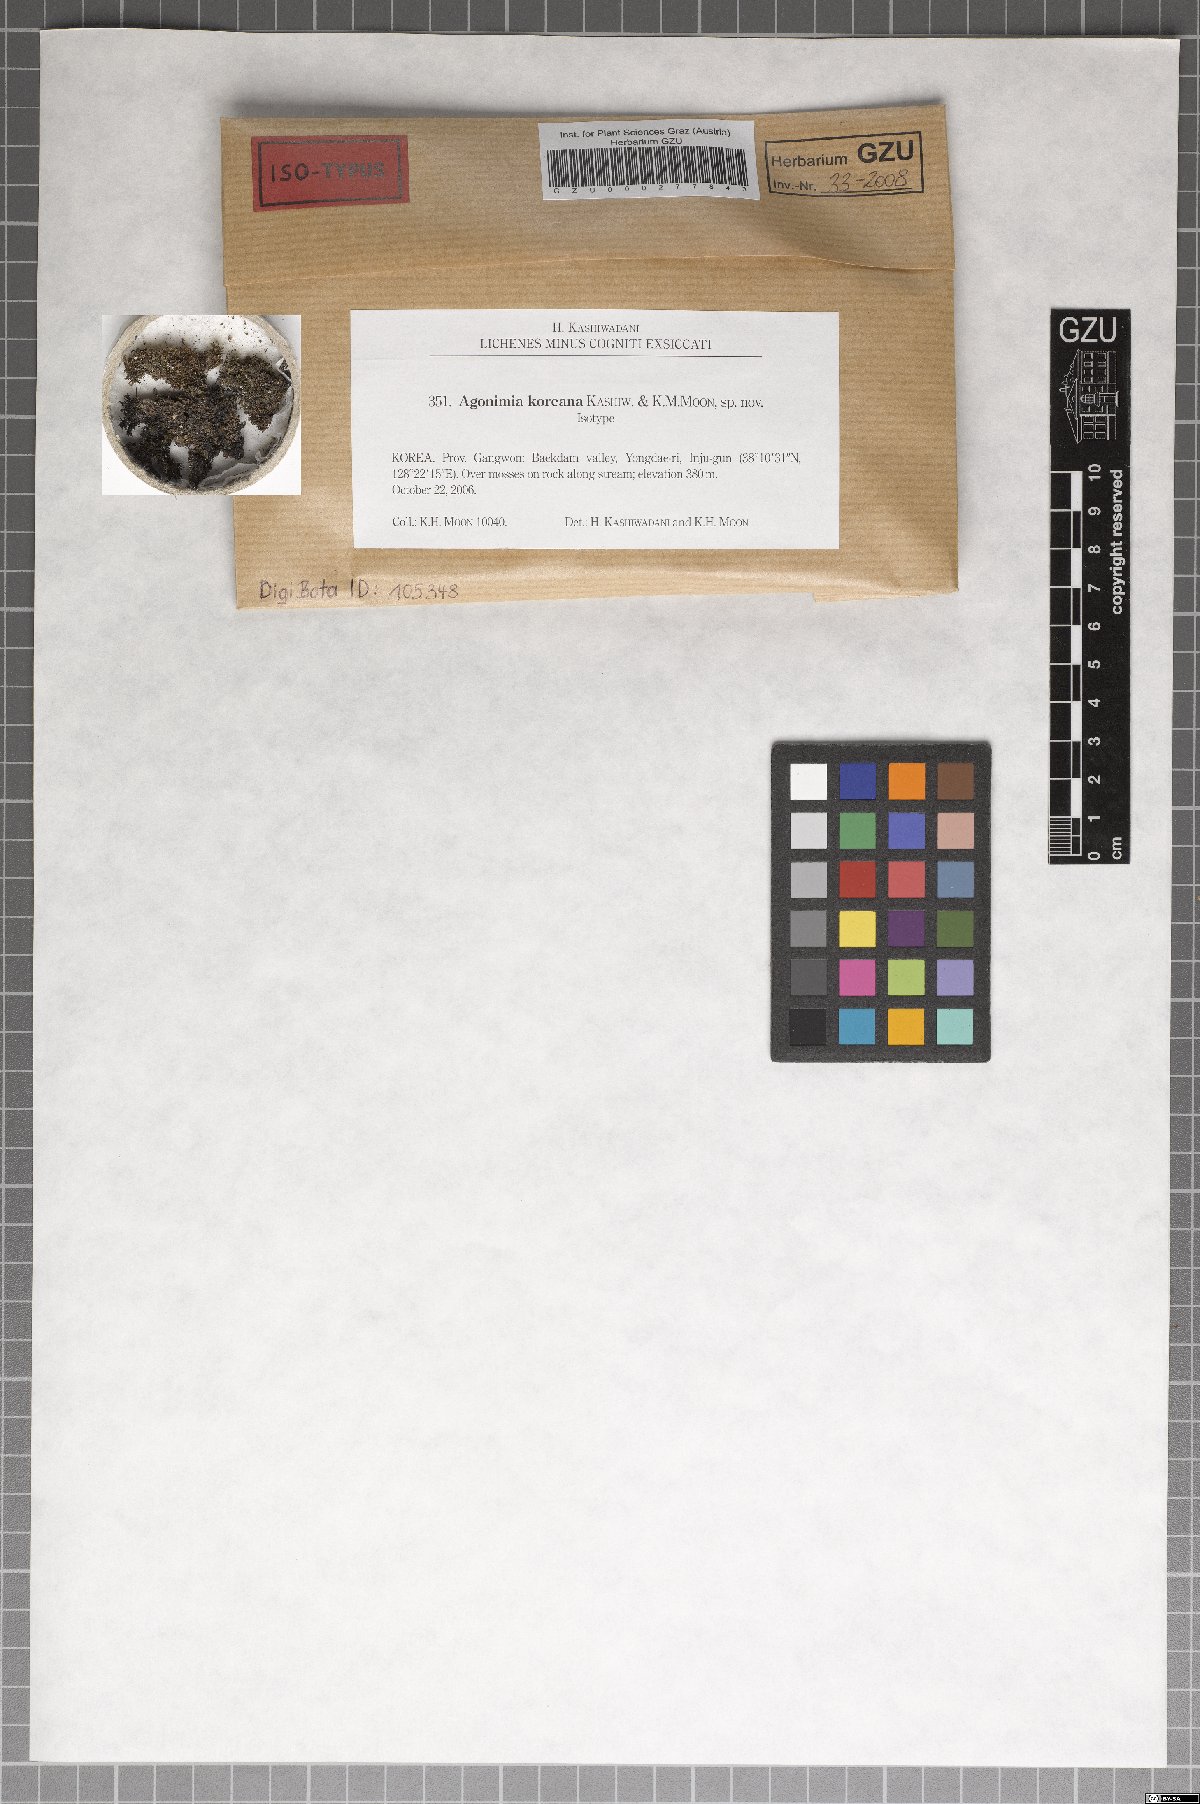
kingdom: Fungi
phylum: Ascomycota
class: Eurotiomycetes
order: Verrucariales
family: Verrucariaceae
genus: Agonimia
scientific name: Agonimia koreana
